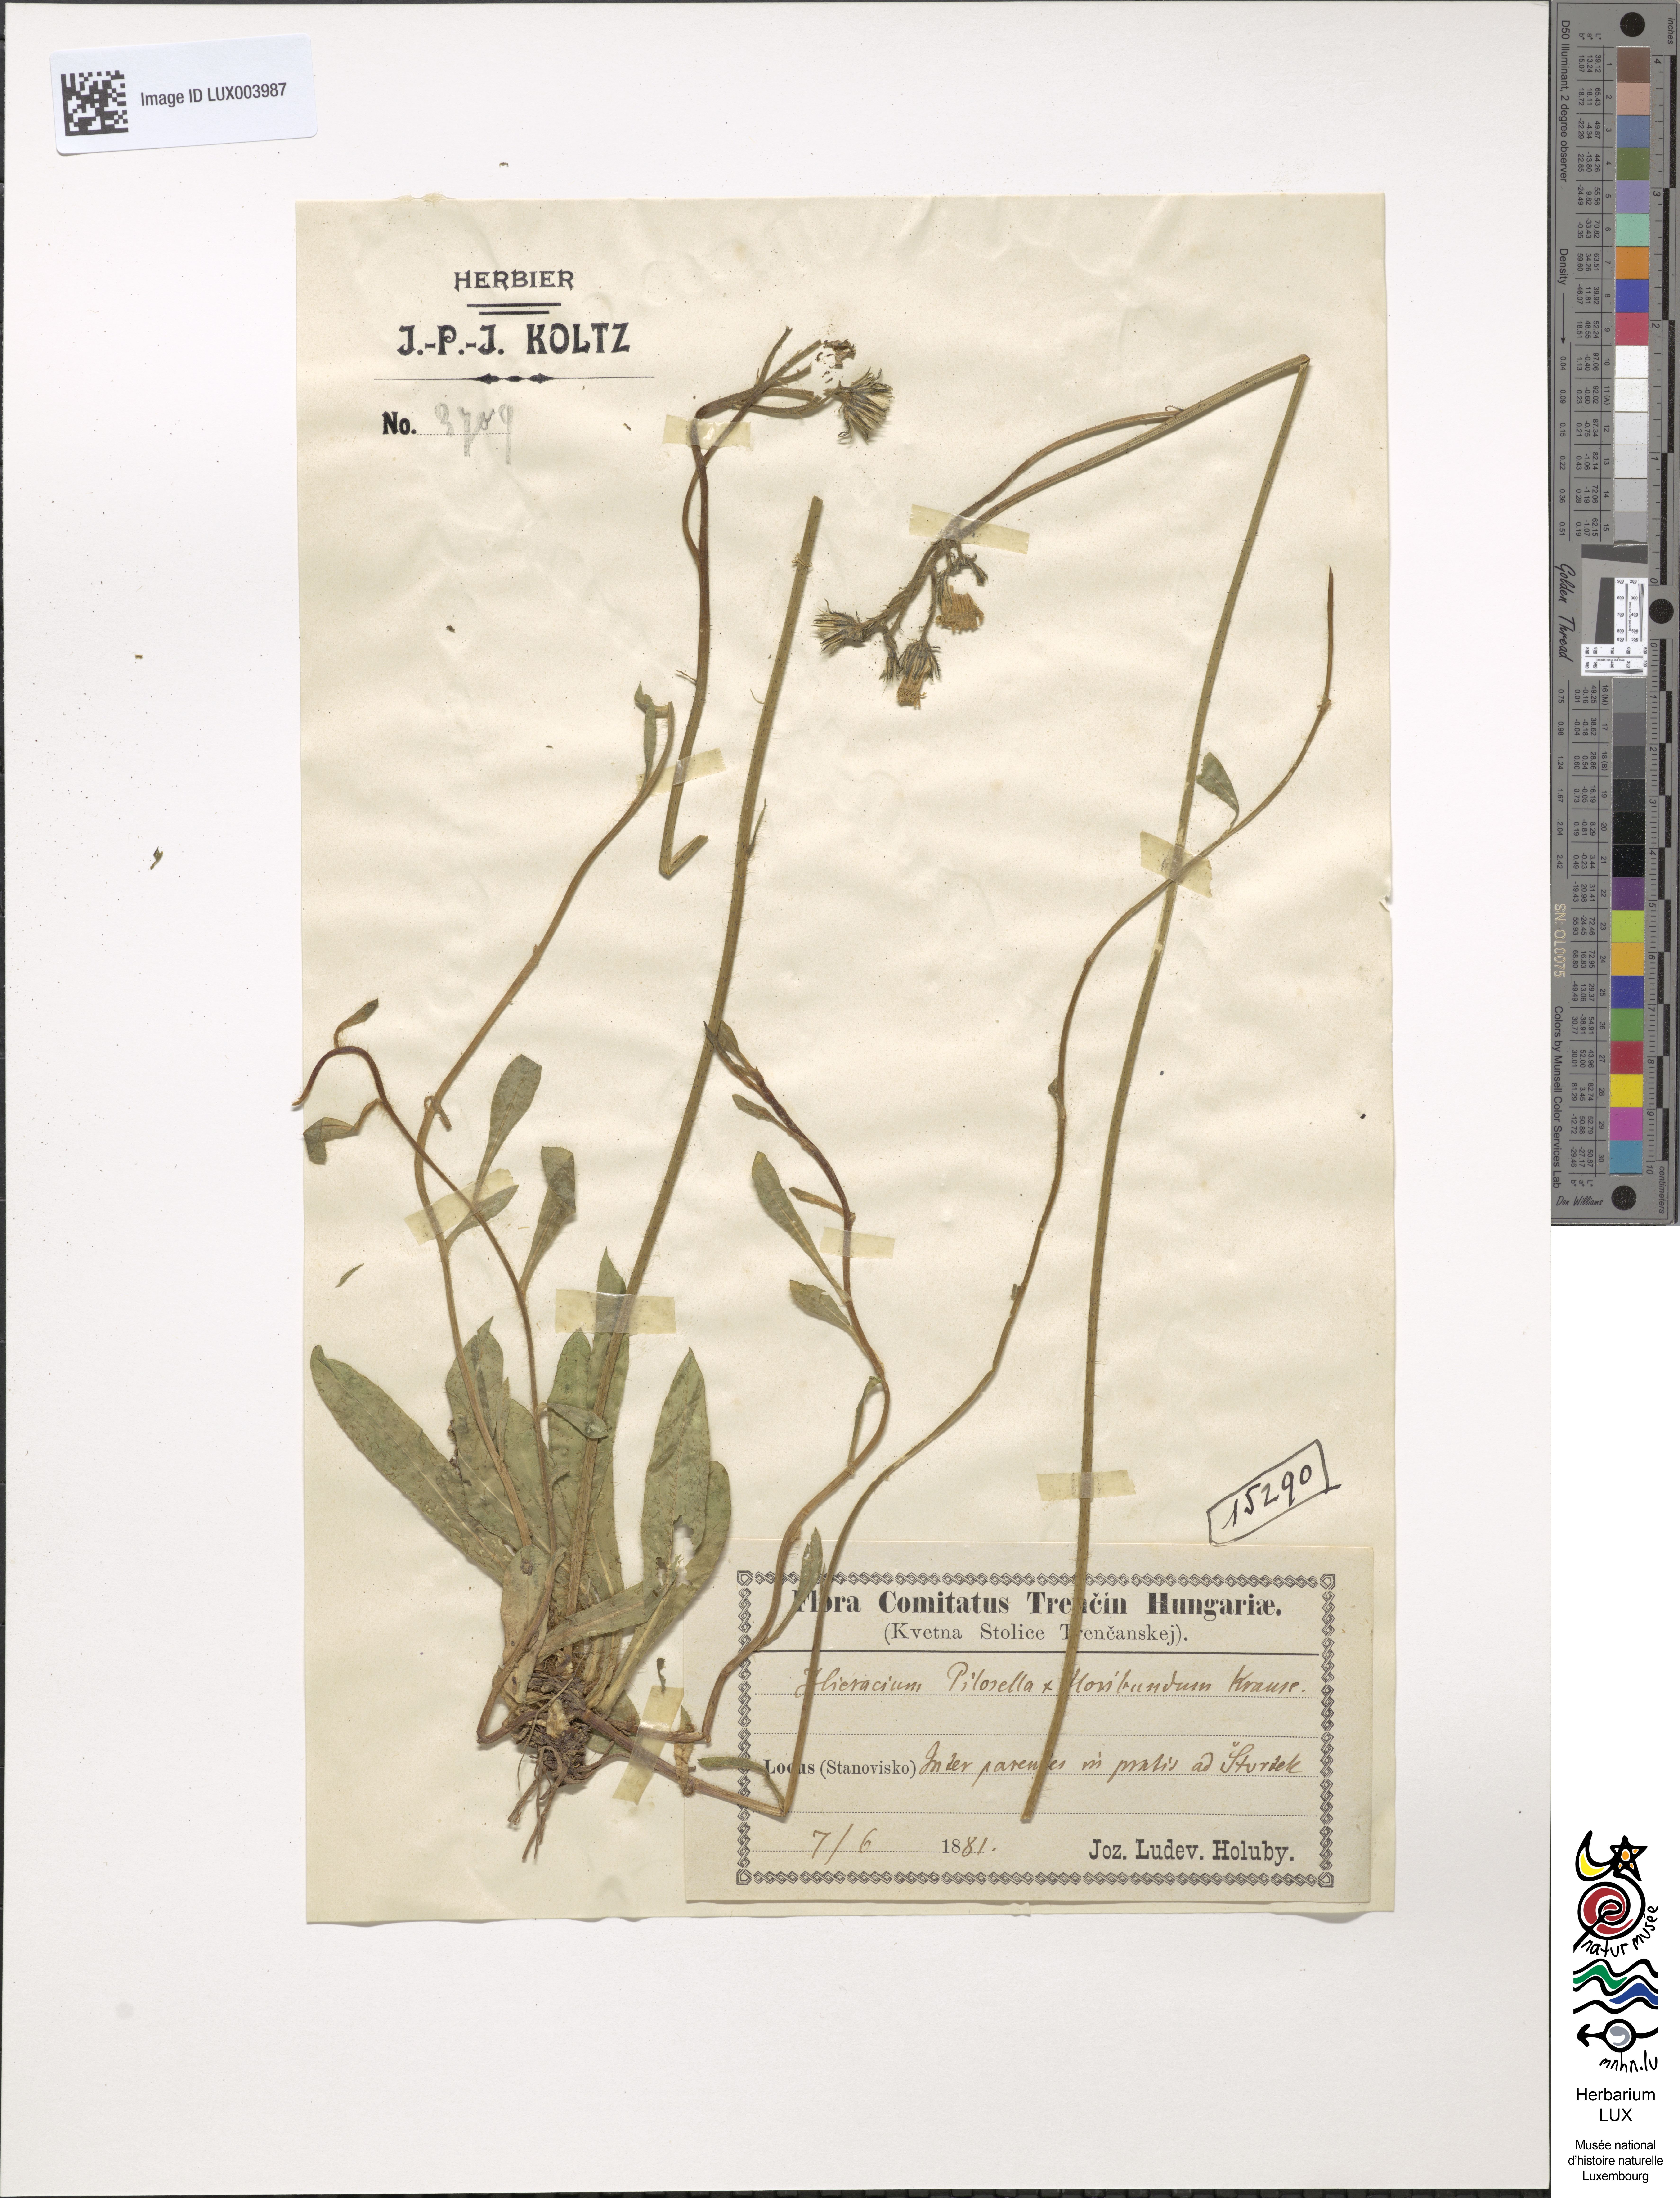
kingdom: Plantae
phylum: Tracheophyta
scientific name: Tracheophyta
